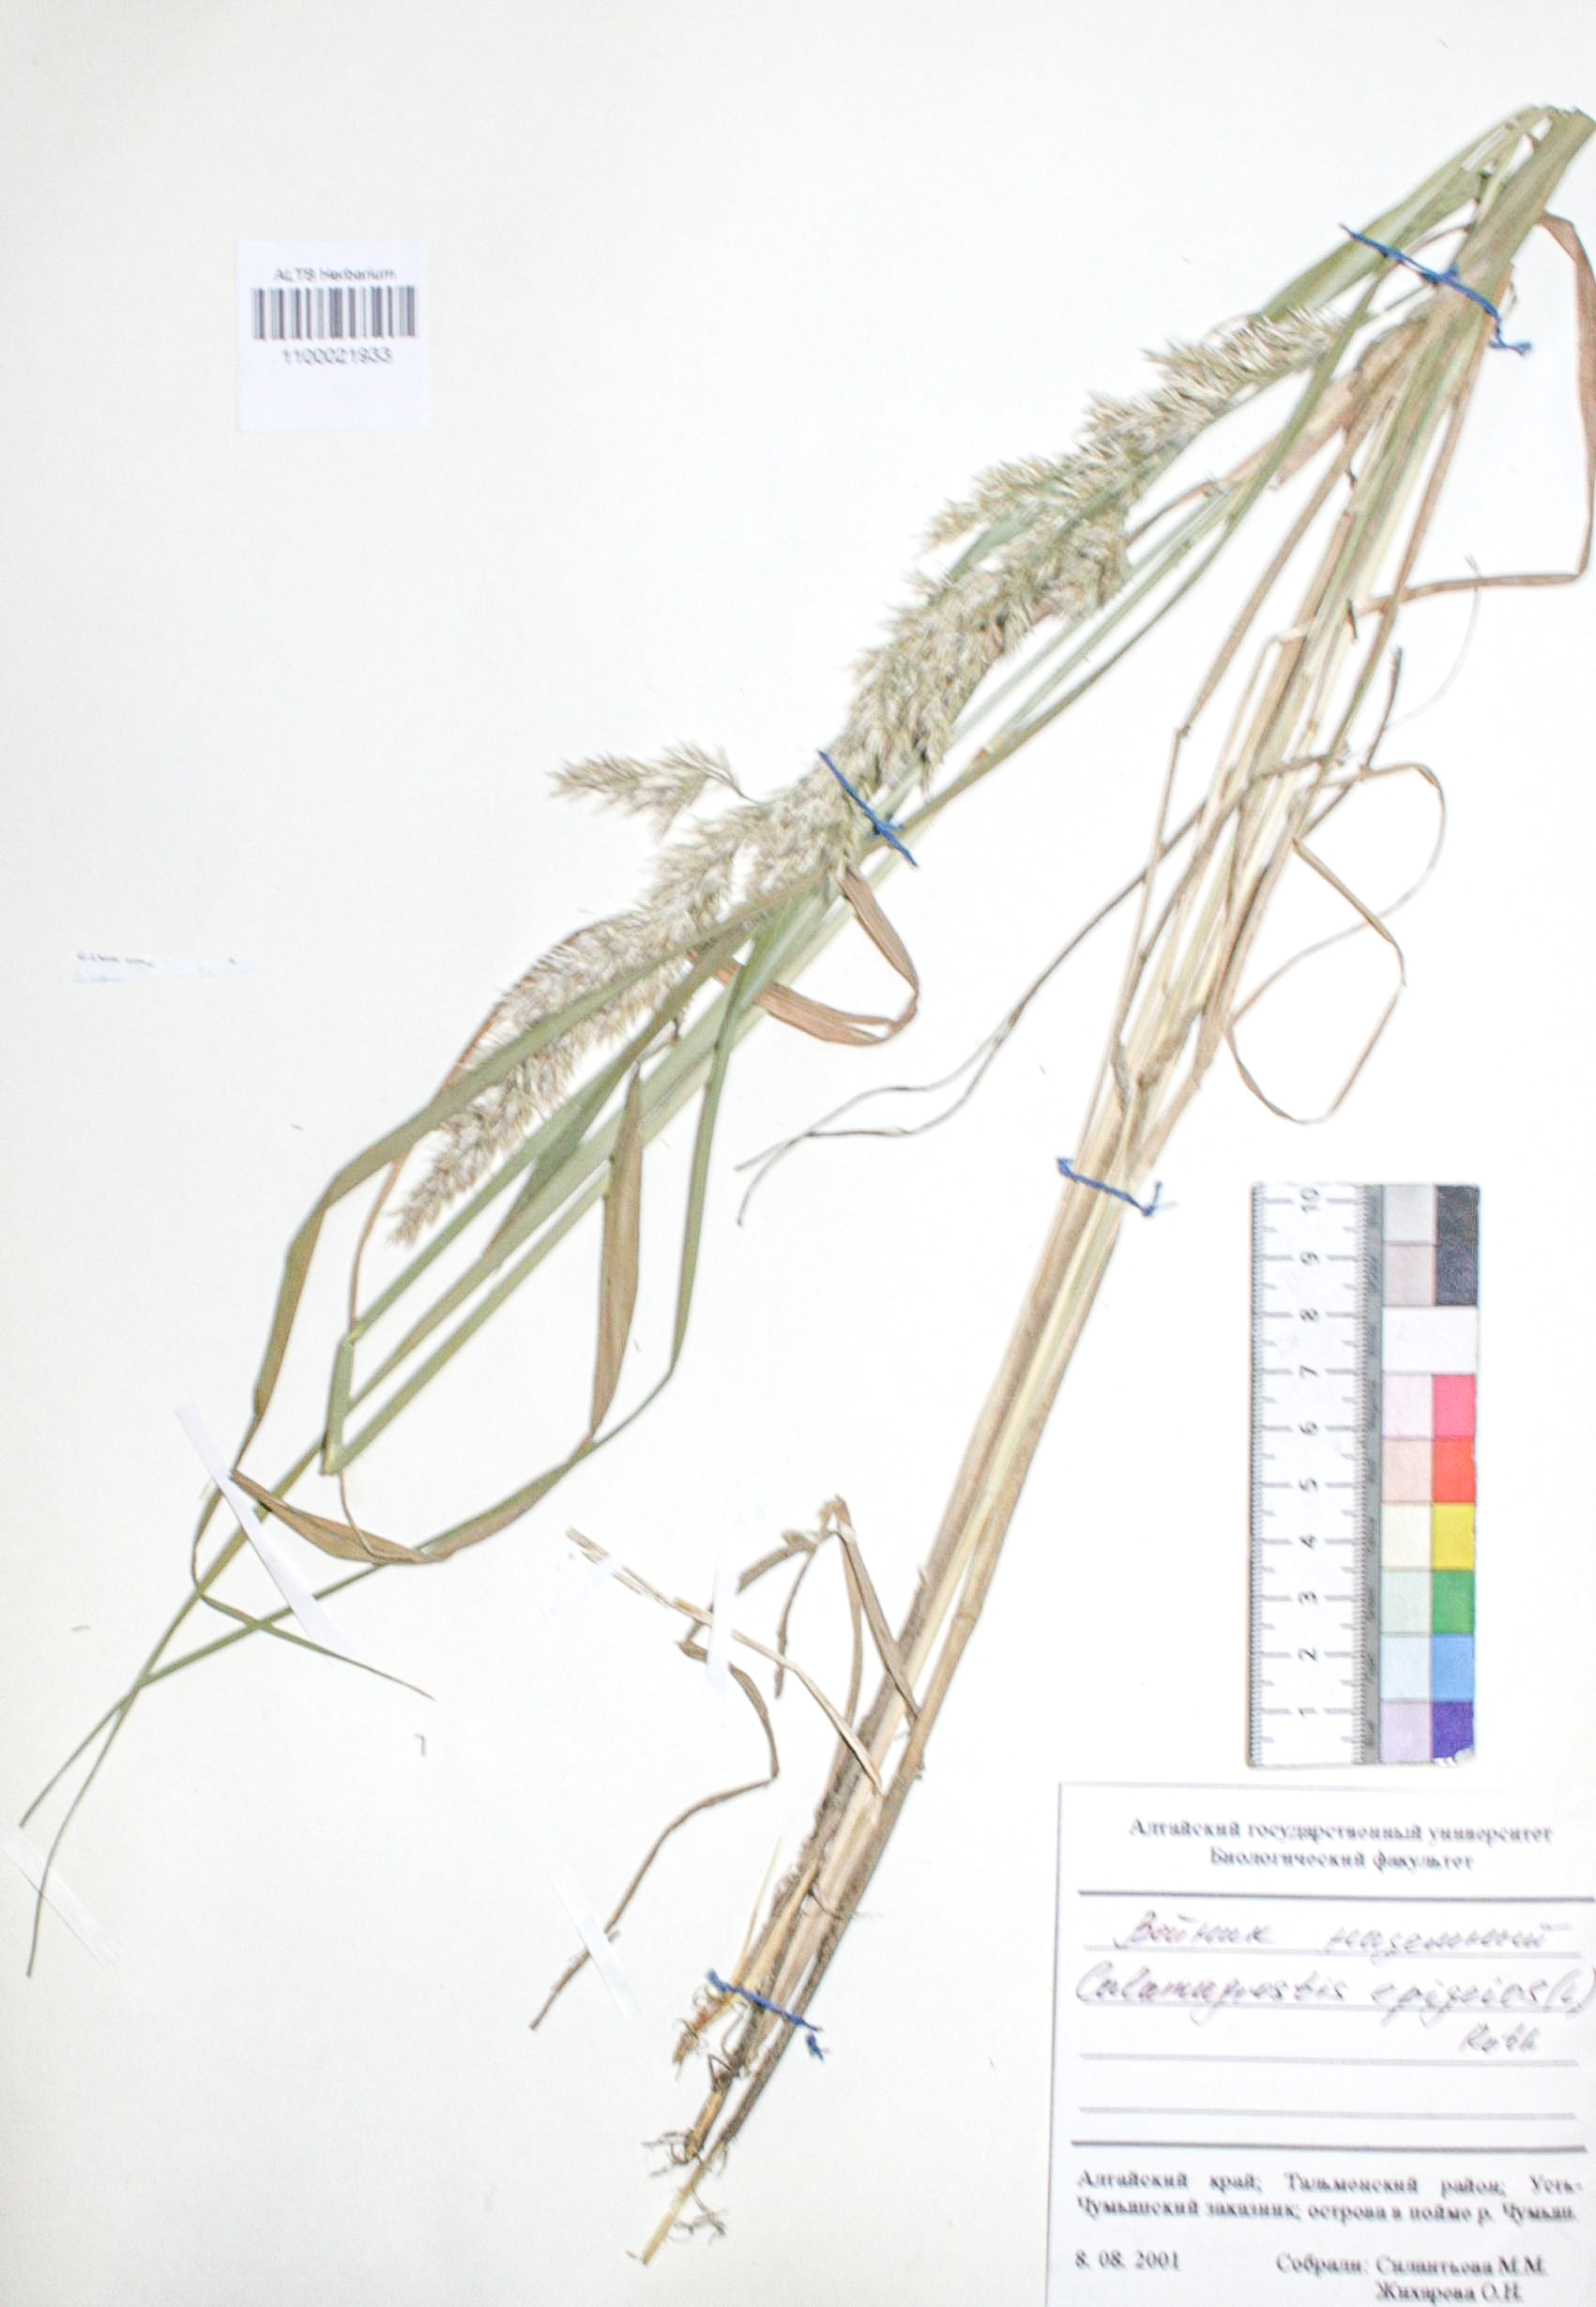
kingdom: Plantae
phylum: Tracheophyta
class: Liliopsida
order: Poales
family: Poaceae
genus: Calamagrostis
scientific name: Calamagrostis epigejos
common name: Wood small-reed
